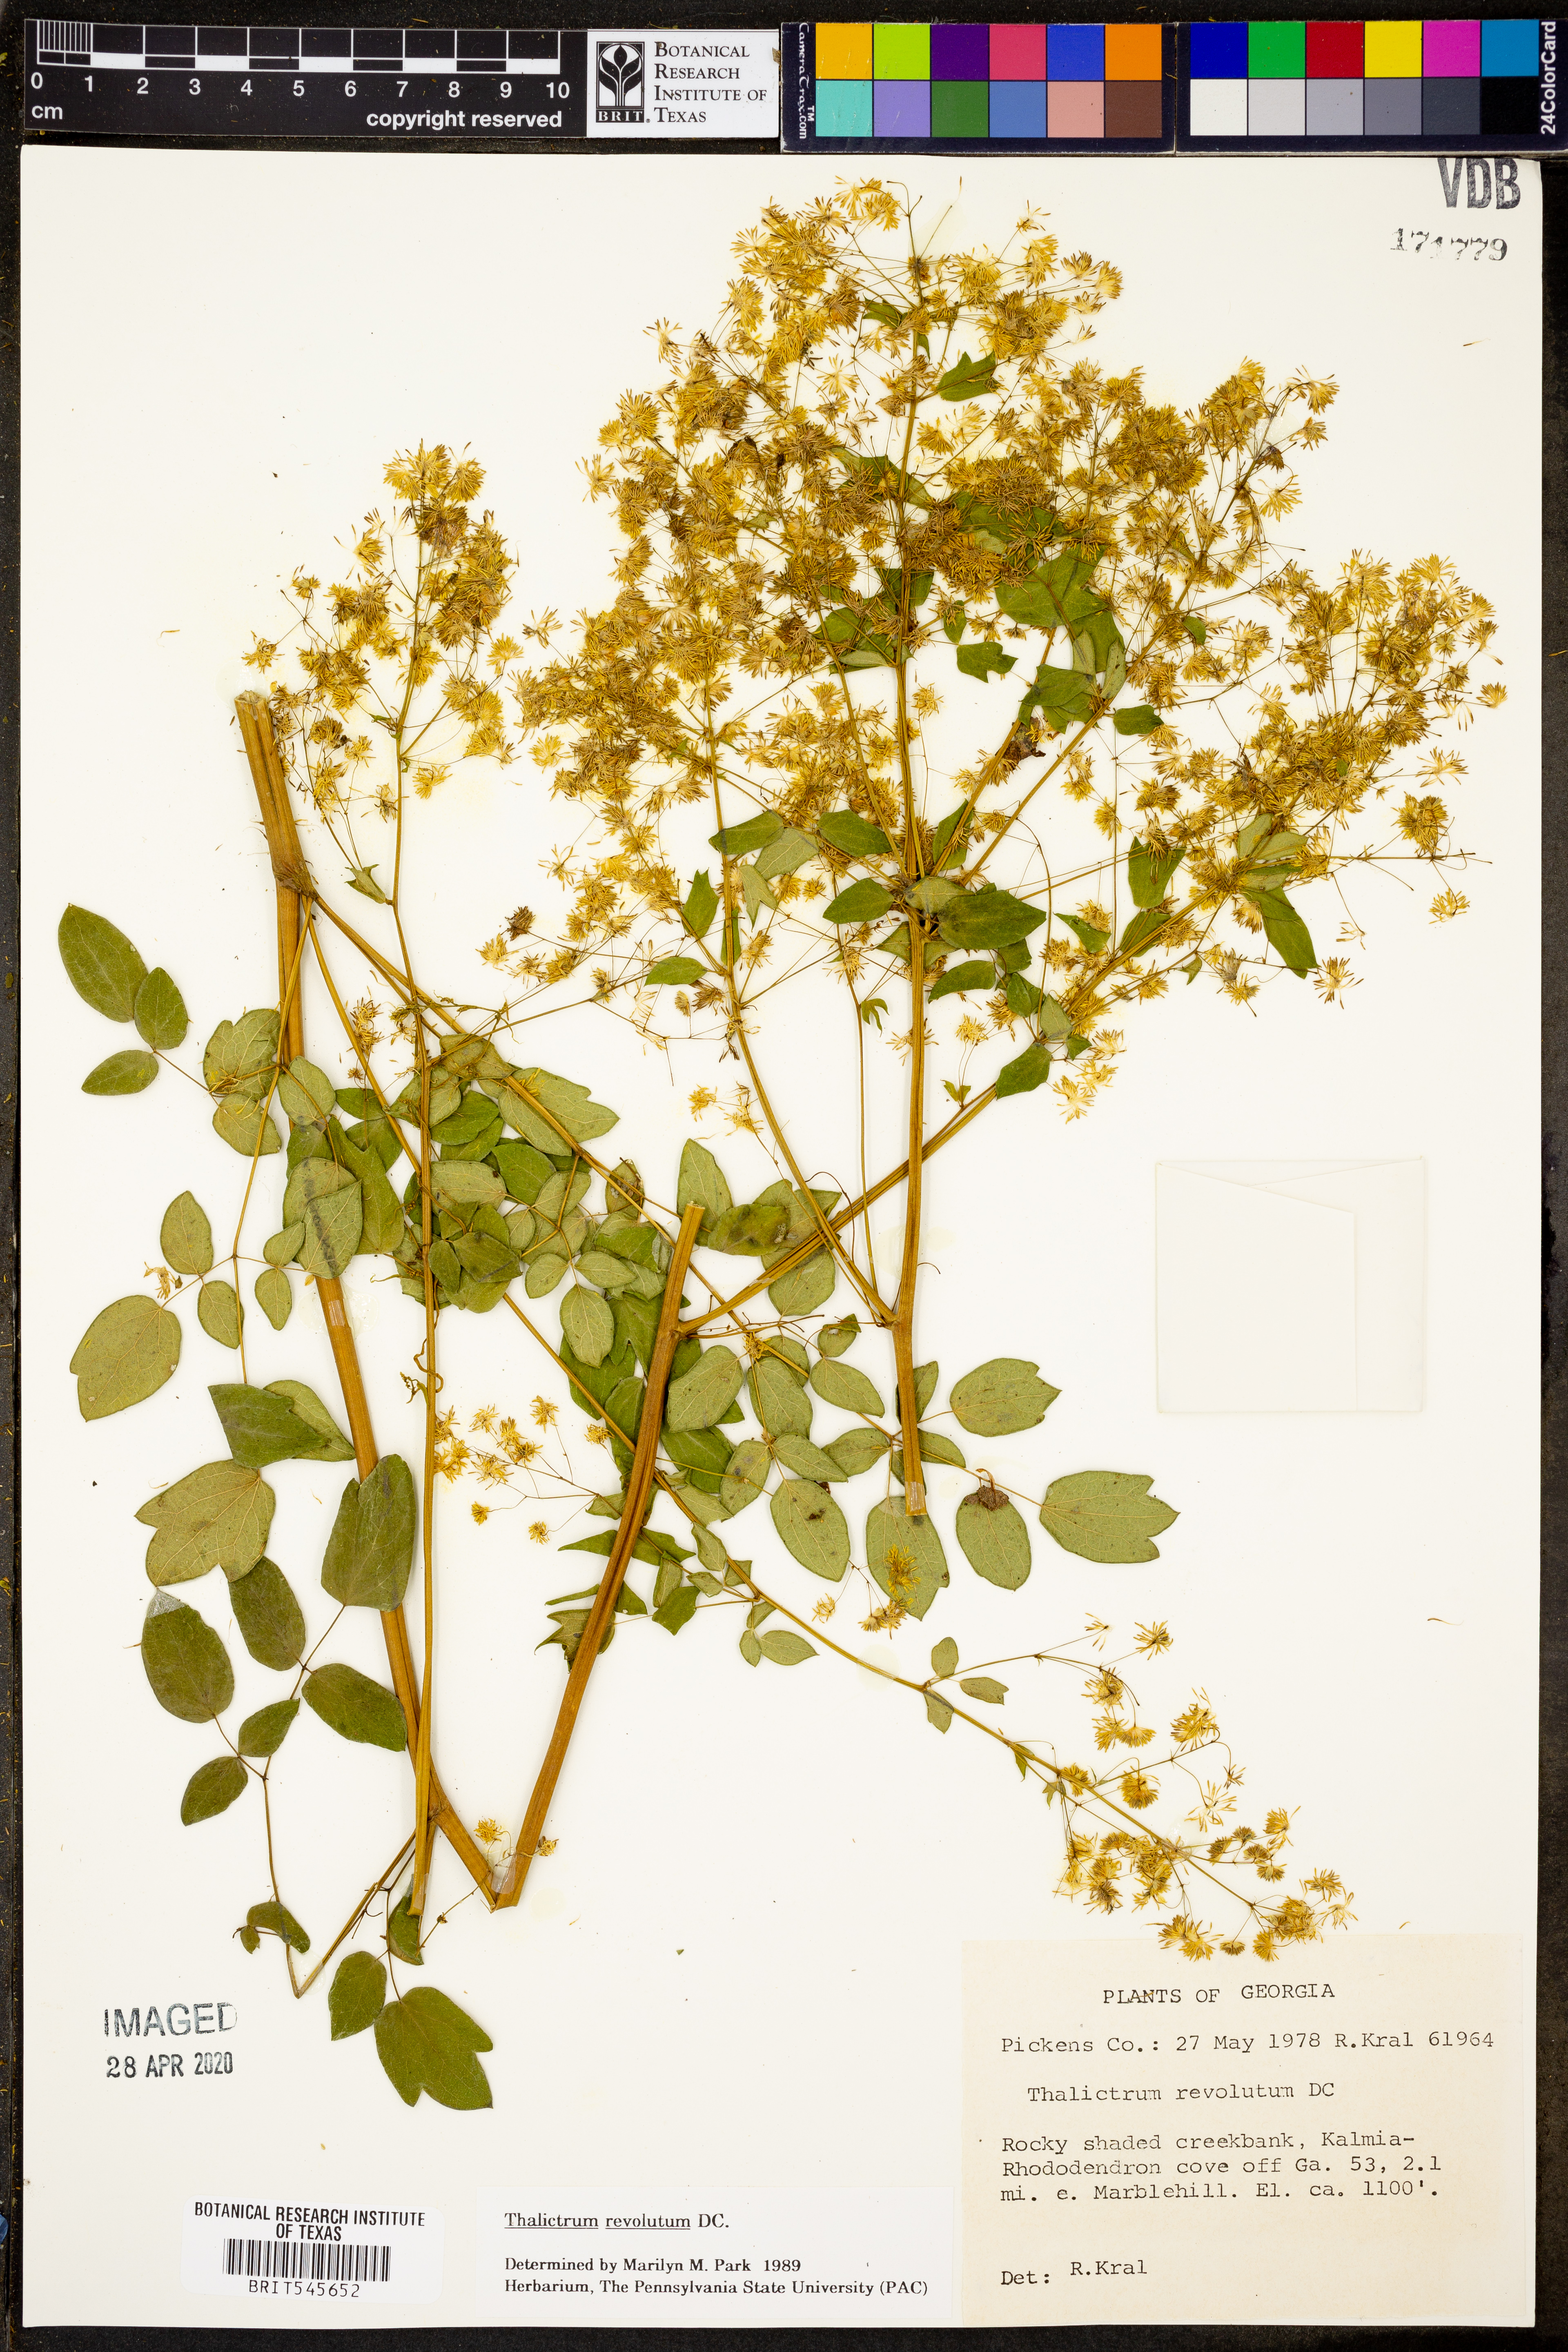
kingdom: Plantae
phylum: Tracheophyta
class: Magnoliopsida
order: Ranunculales
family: Ranunculaceae
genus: Thalictrum
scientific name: Thalictrum revolutum
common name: Waxy meadow-rue
